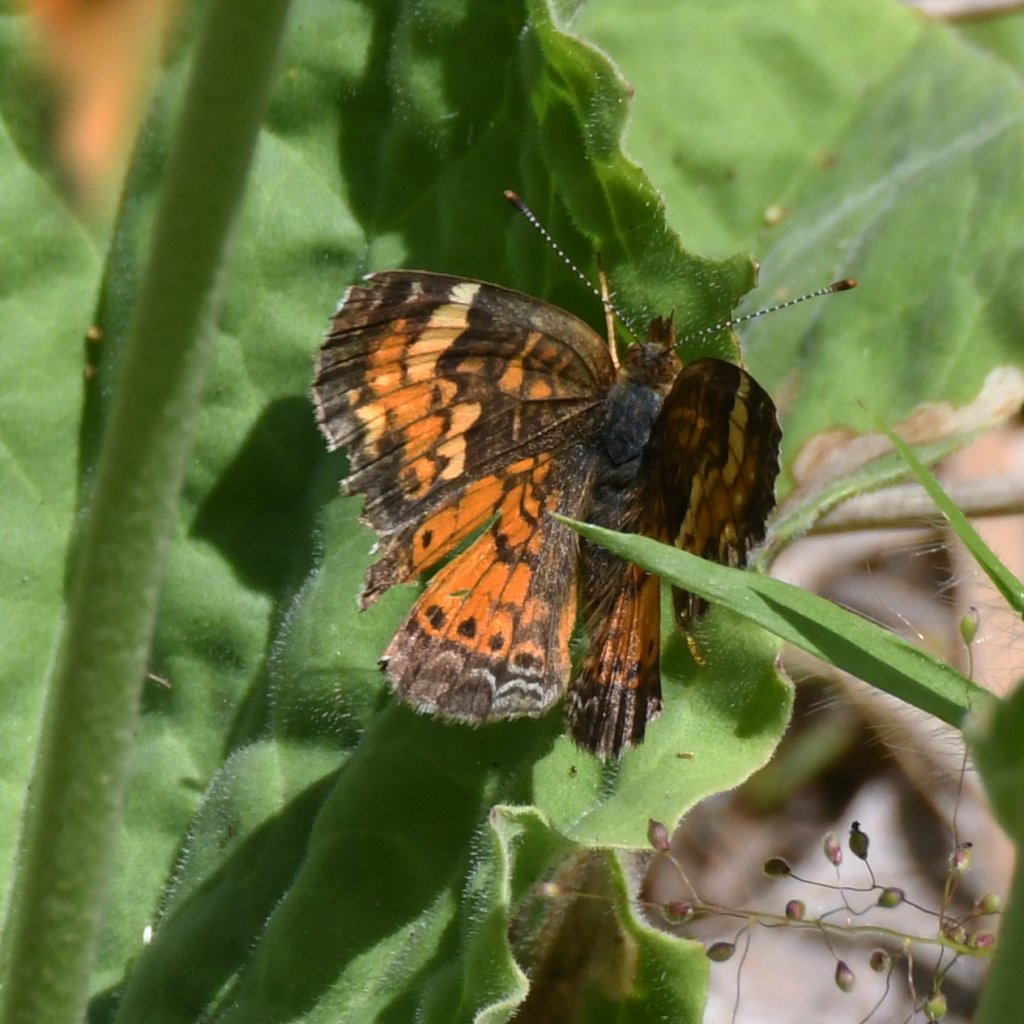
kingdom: Animalia
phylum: Arthropoda
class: Insecta
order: Lepidoptera
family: Nymphalidae
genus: Phyciodes
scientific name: Phyciodes tharos
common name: Northern Crescent
